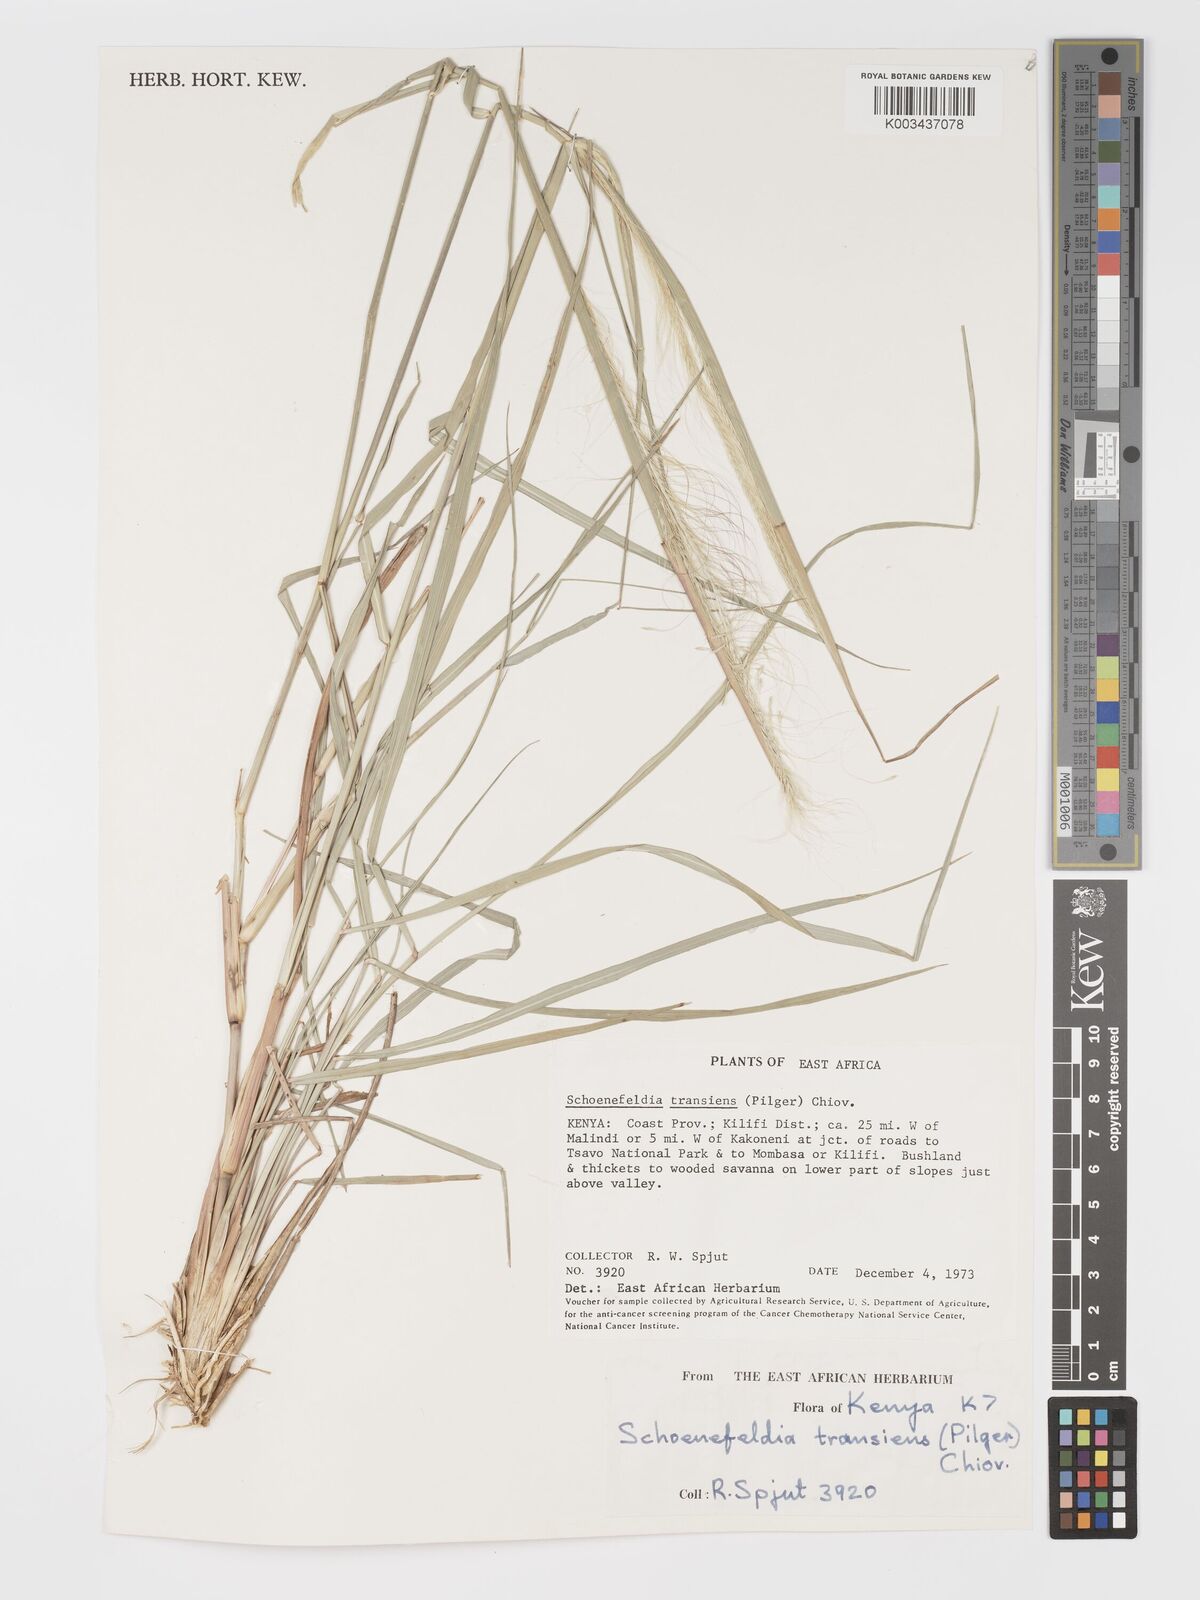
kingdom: Plantae
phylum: Tracheophyta
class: Liliopsida
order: Poales
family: Poaceae
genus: Schoenefeldia
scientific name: Schoenefeldia transiens
